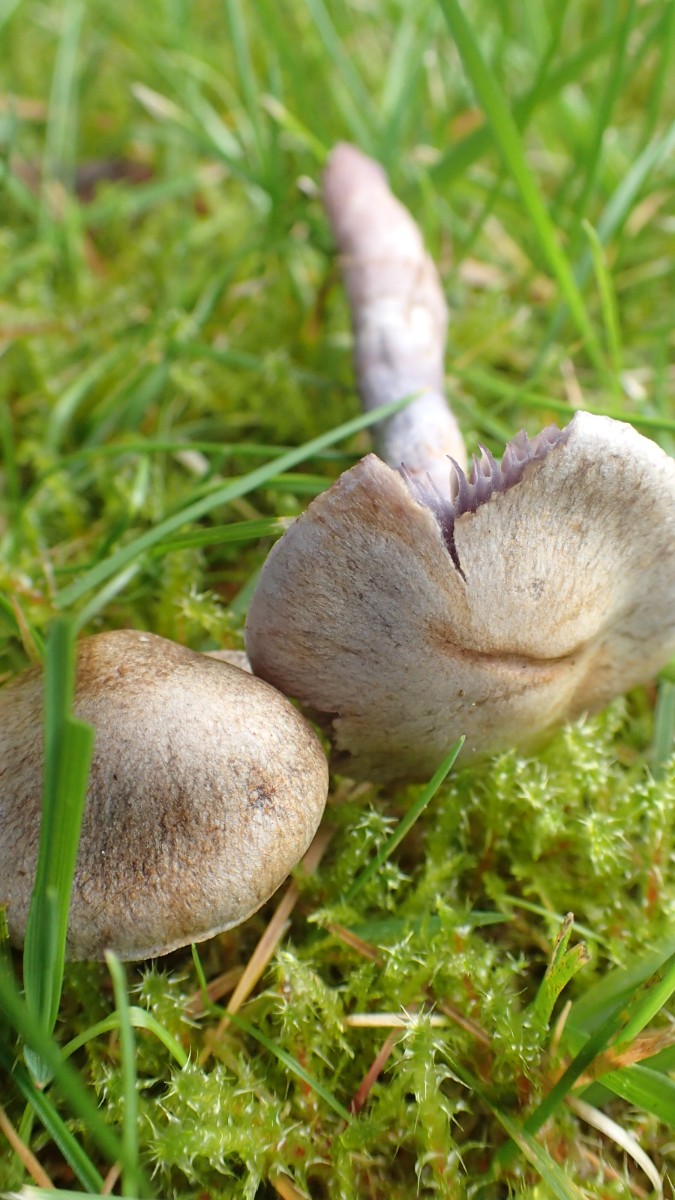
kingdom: Fungi
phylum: Basidiomycota
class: Agaricomycetes
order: Agaricales
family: Cortinariaceae
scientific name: Cortinariaceae
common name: slørhatfamilien
